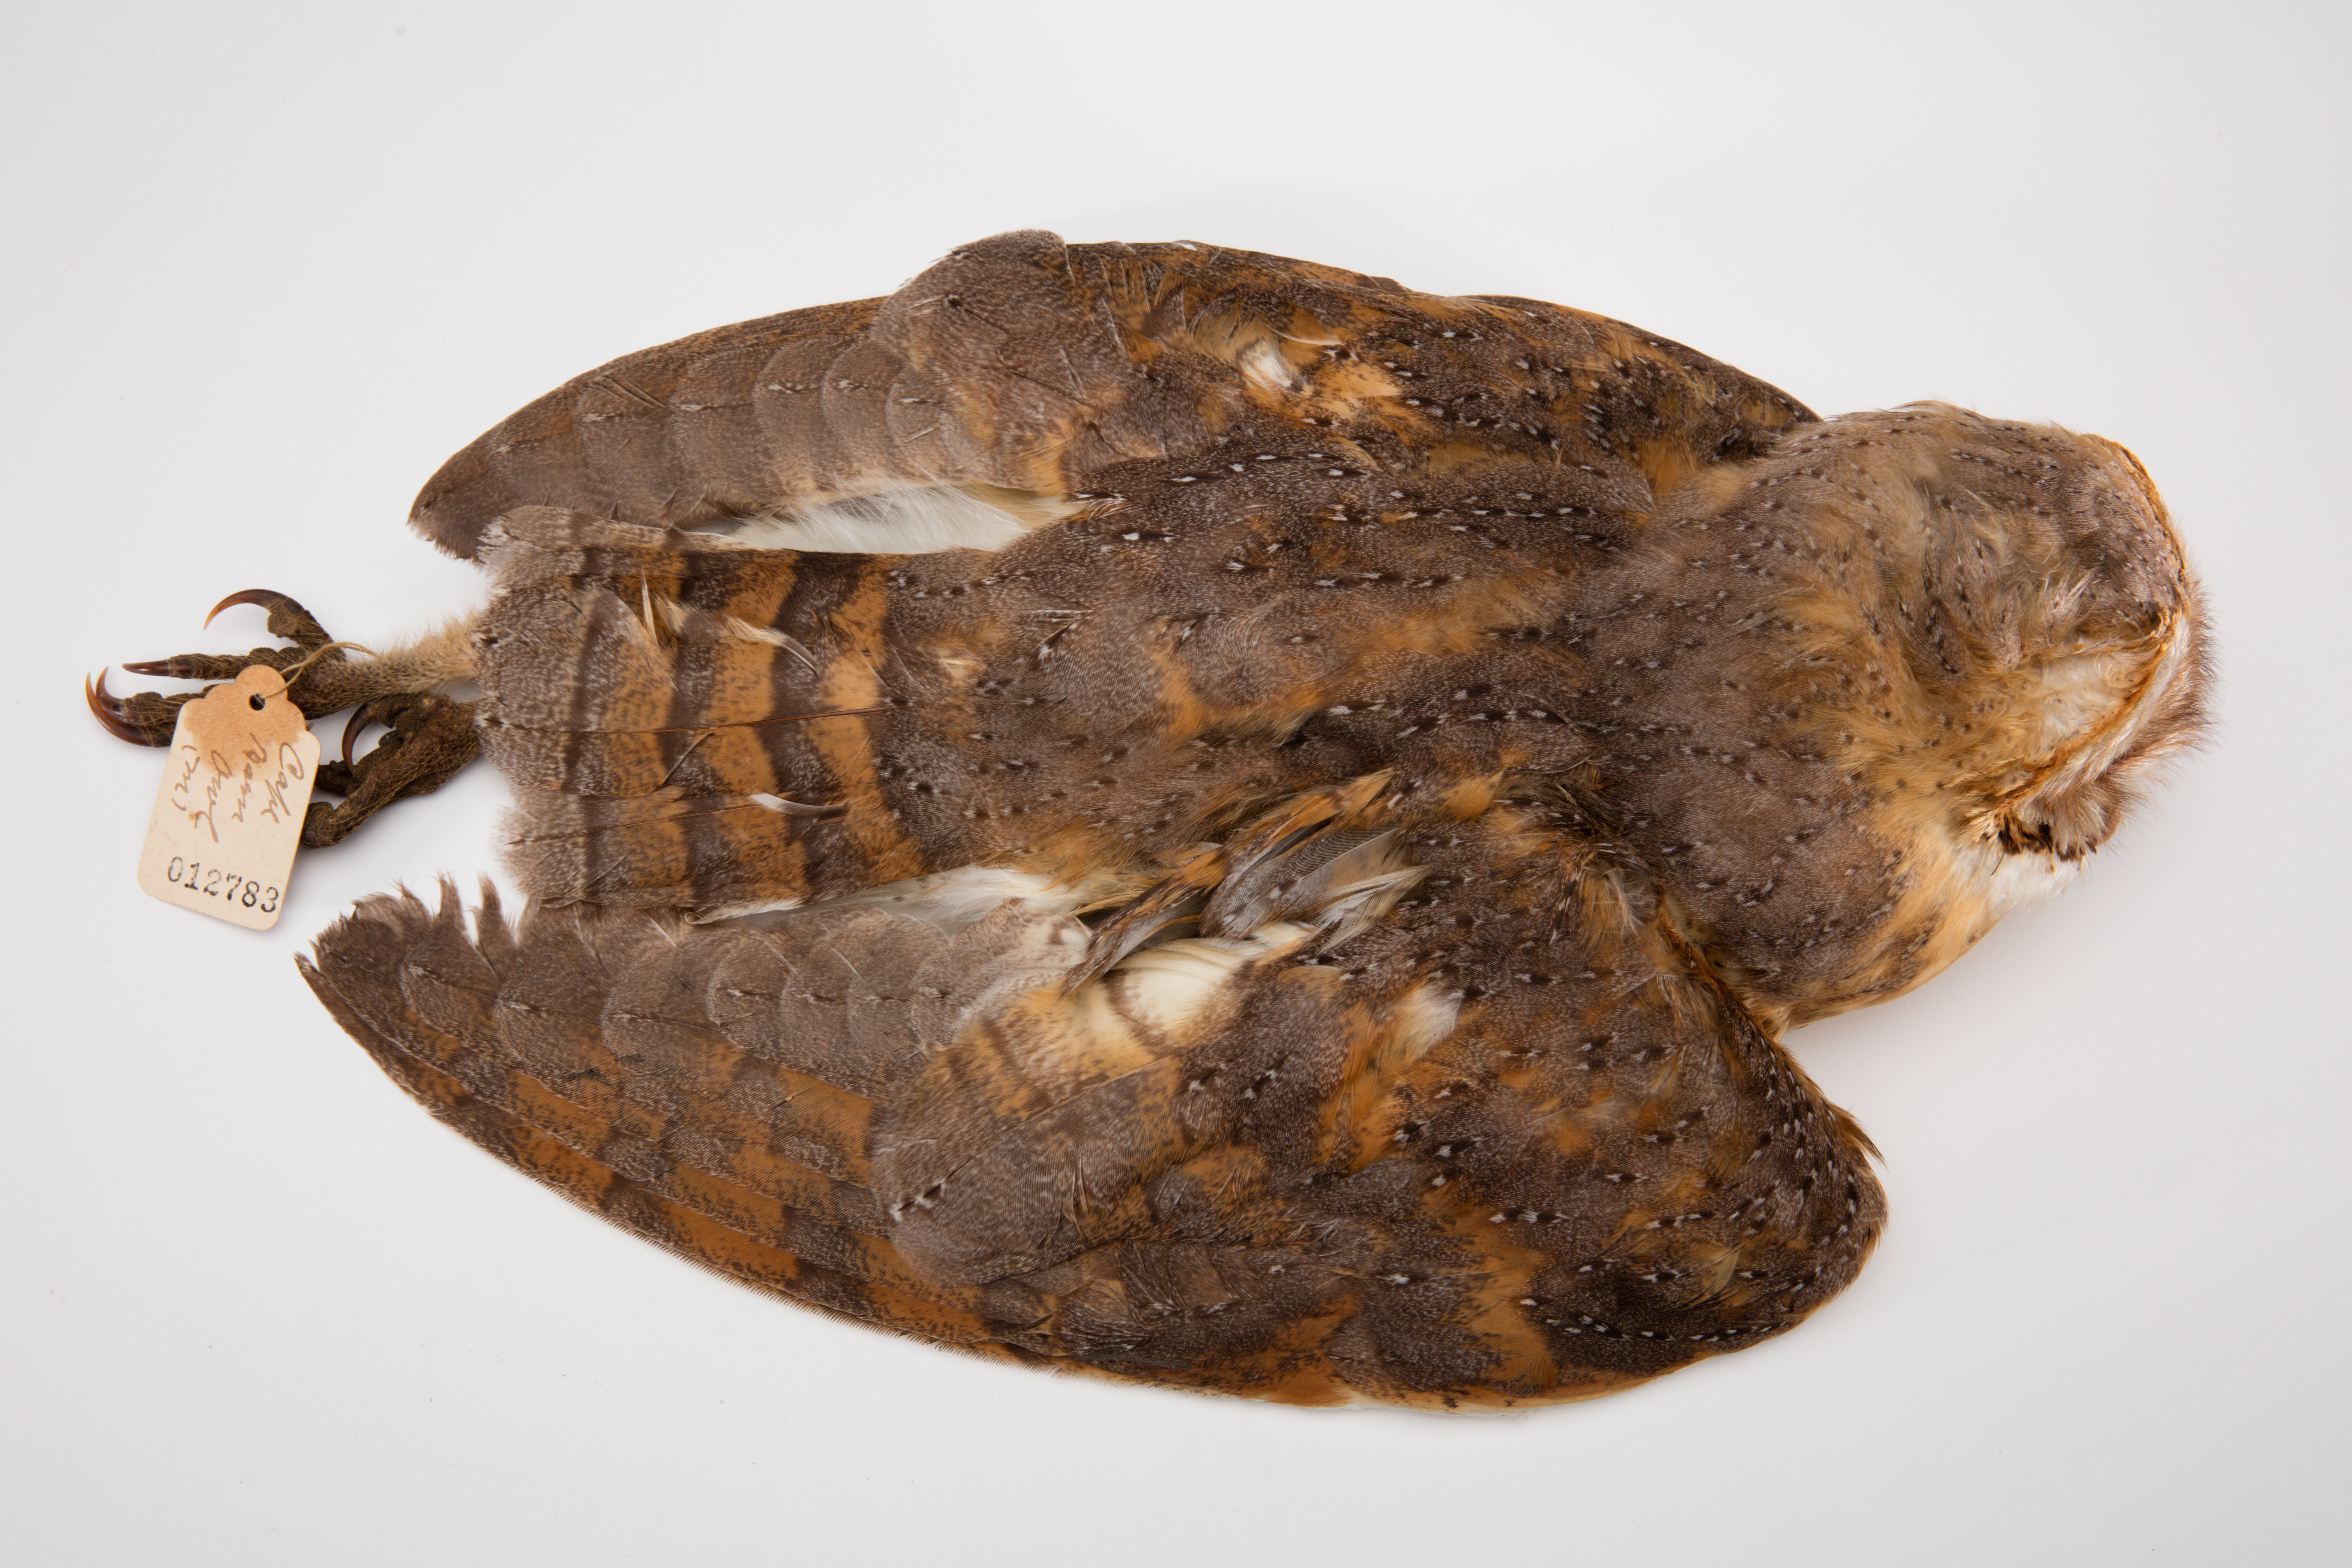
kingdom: Animalia
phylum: Chordata
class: Aves
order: Strigiformes
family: Tytonidae
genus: Tyto
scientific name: Tyto alba
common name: Barn owl
